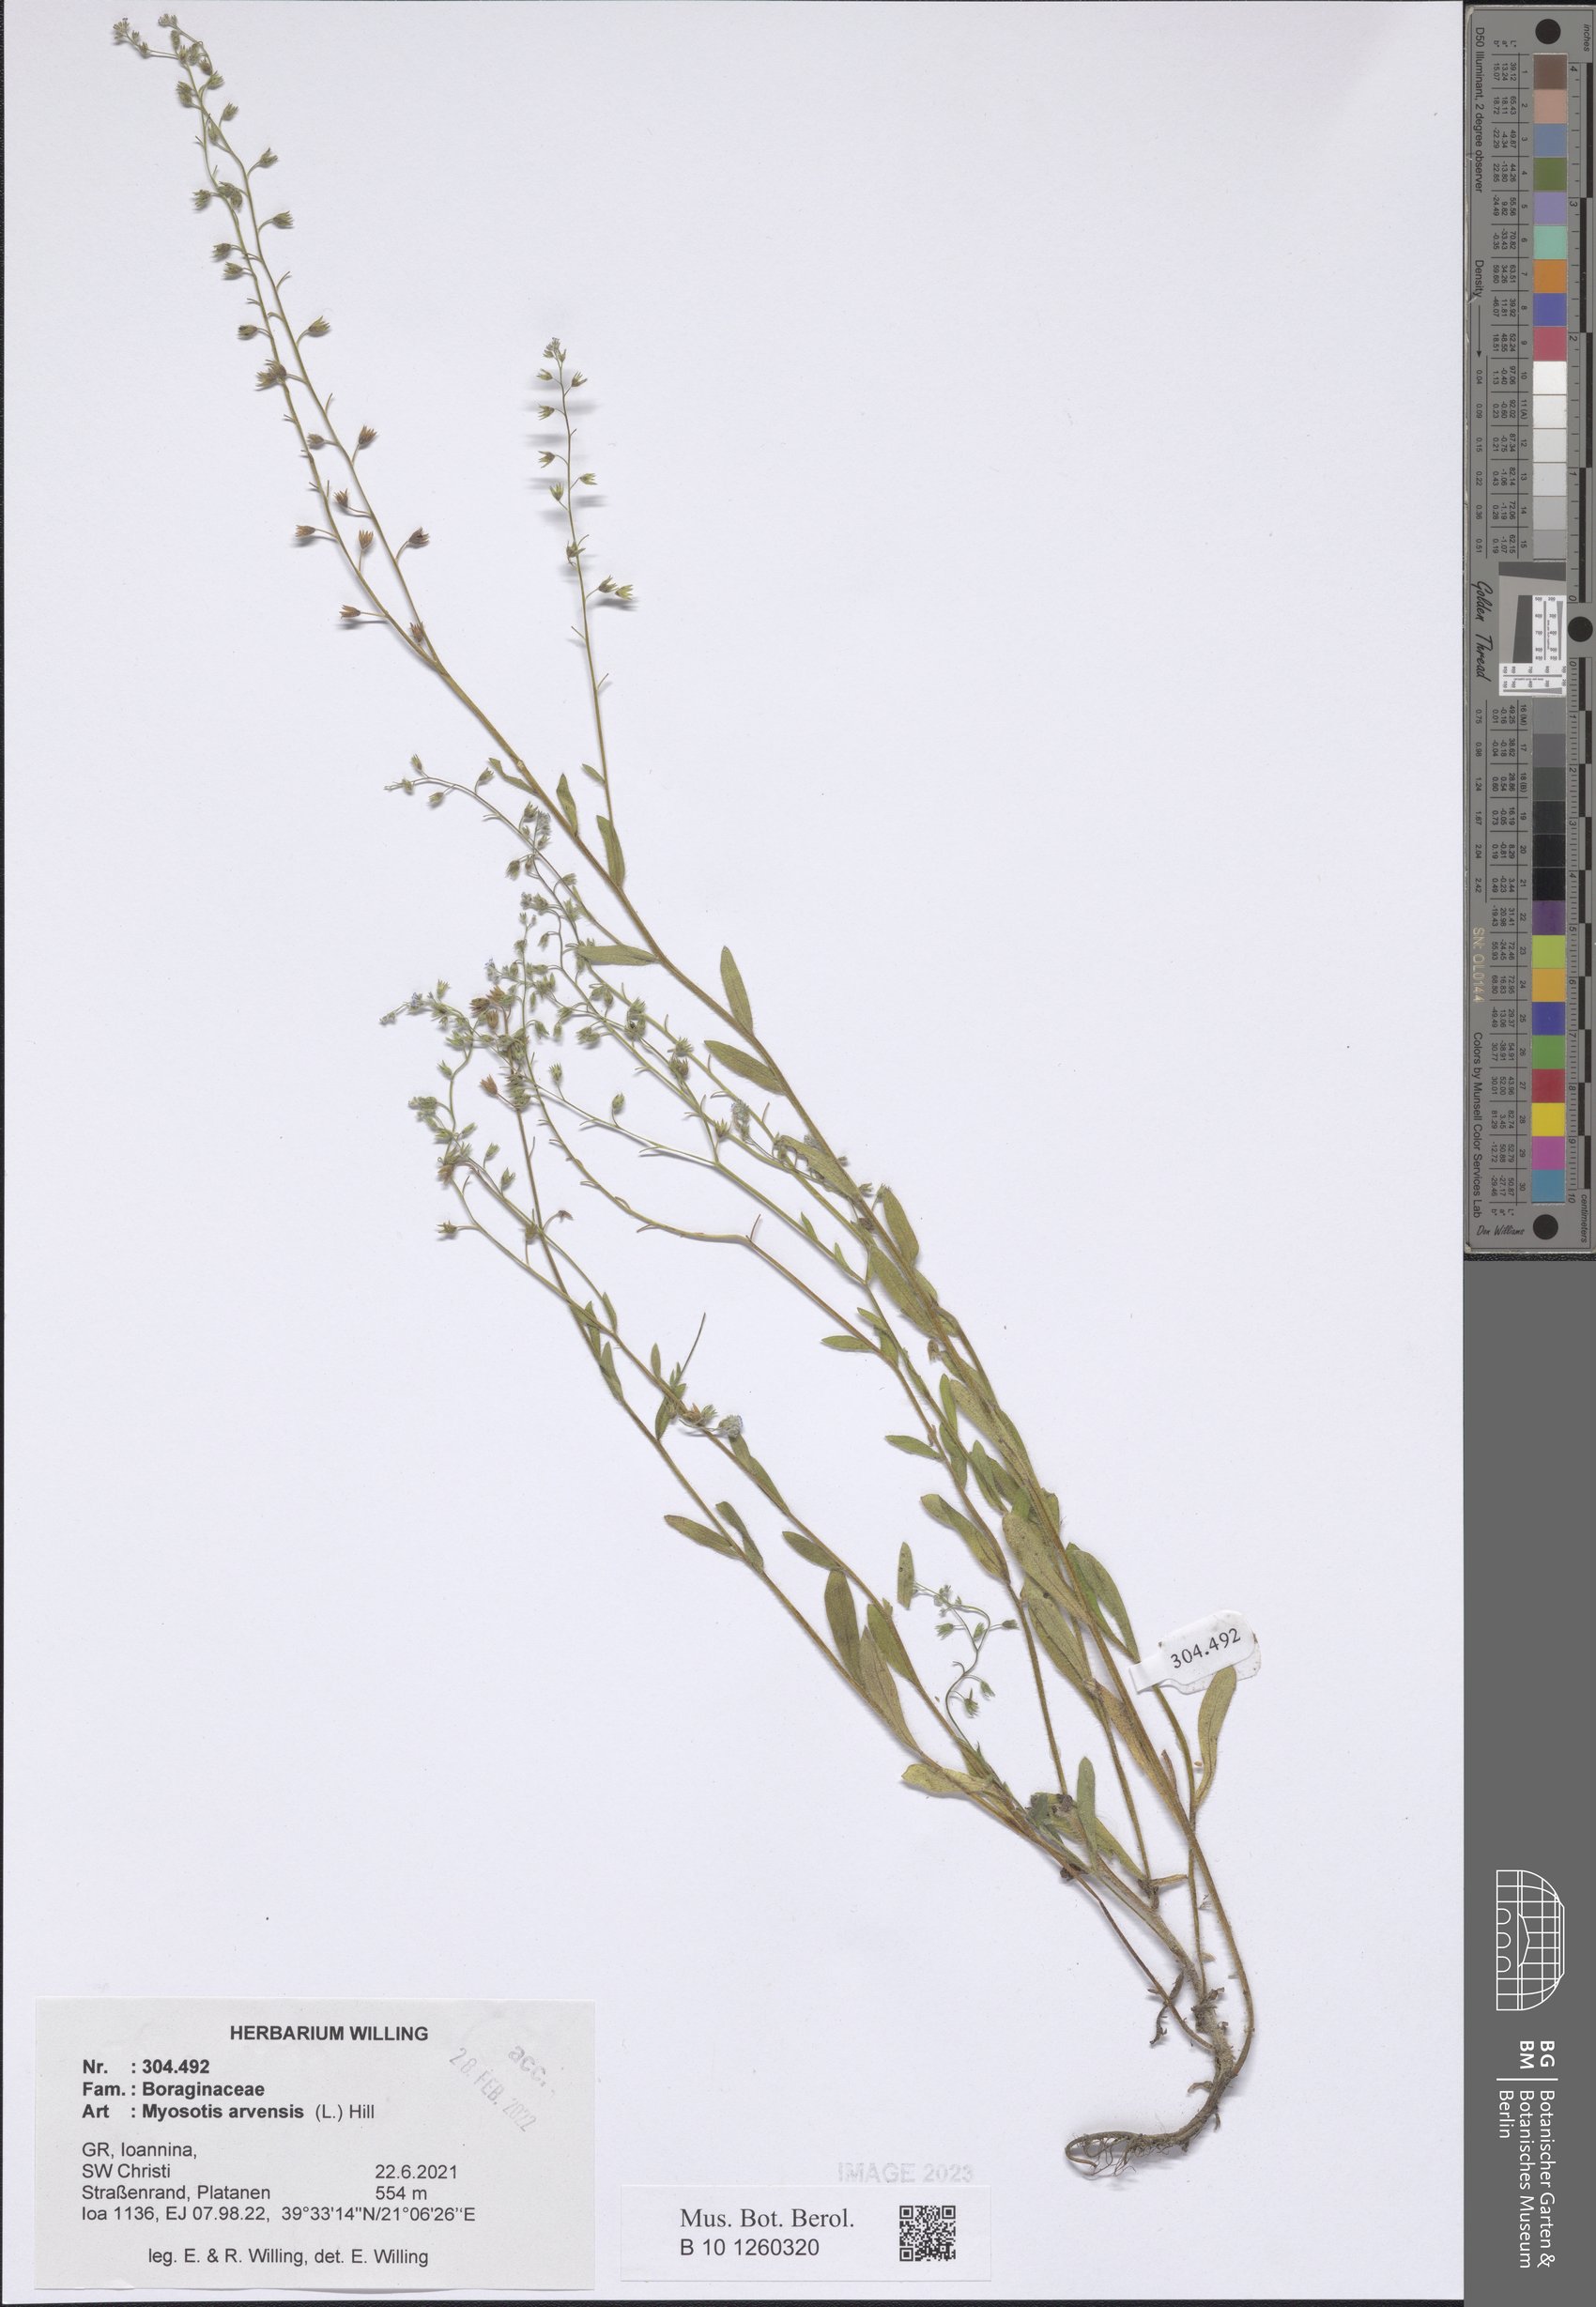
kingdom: Plantae
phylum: Tracheophyta
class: Magnoliopsida
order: Boraginales
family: Boraginaceae
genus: Myosotis
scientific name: Myosotis arvensis
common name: Field forget-me-not
